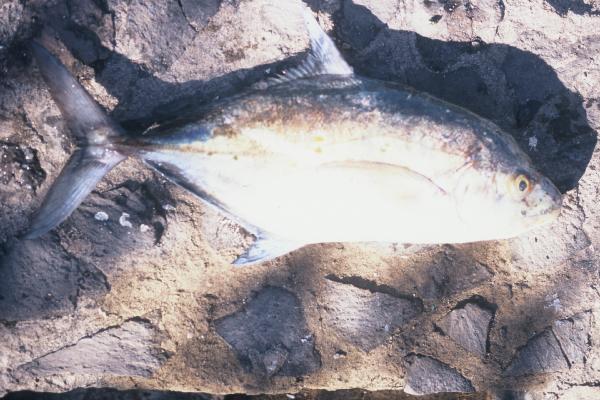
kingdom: Animalia
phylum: Chordata
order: Perciformes
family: Carangidae
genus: Carangoides
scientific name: Carangoides ferdau
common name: Blue trevally
